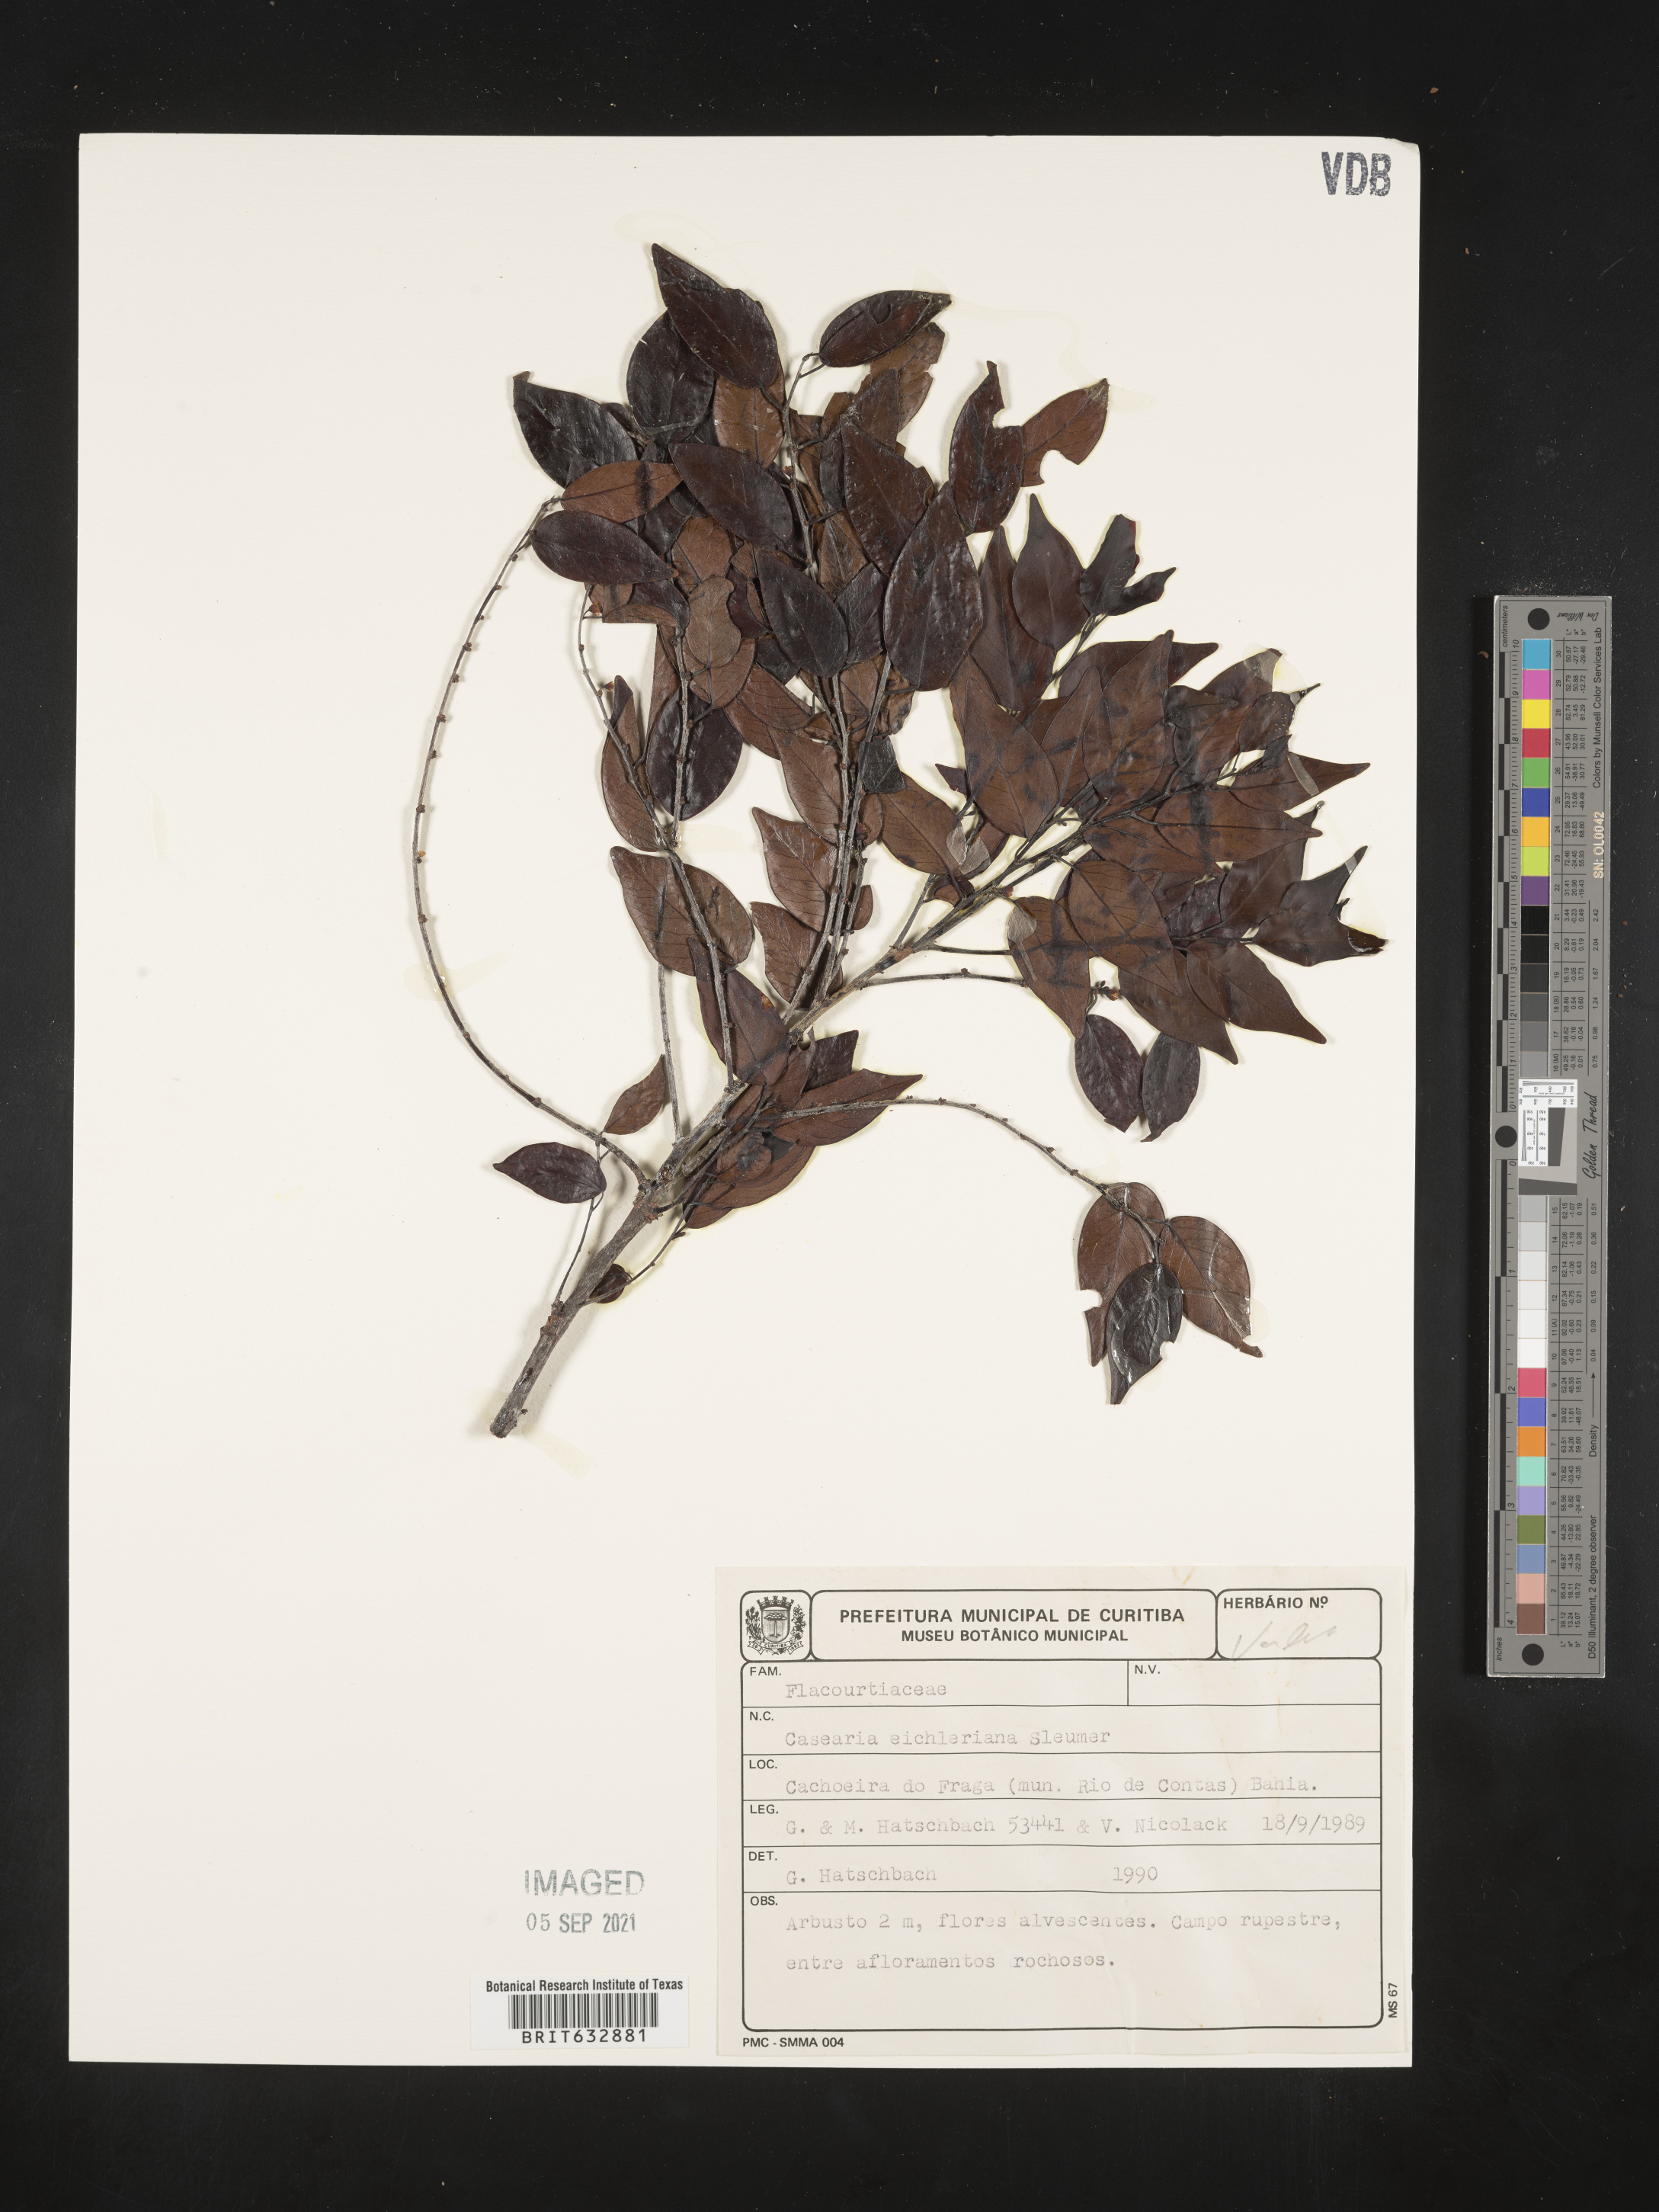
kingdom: Plantae
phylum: Tracheophyta
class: Magnoliopsida
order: Malpighiales
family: Salicaceae
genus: Casearia
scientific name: Casearia
